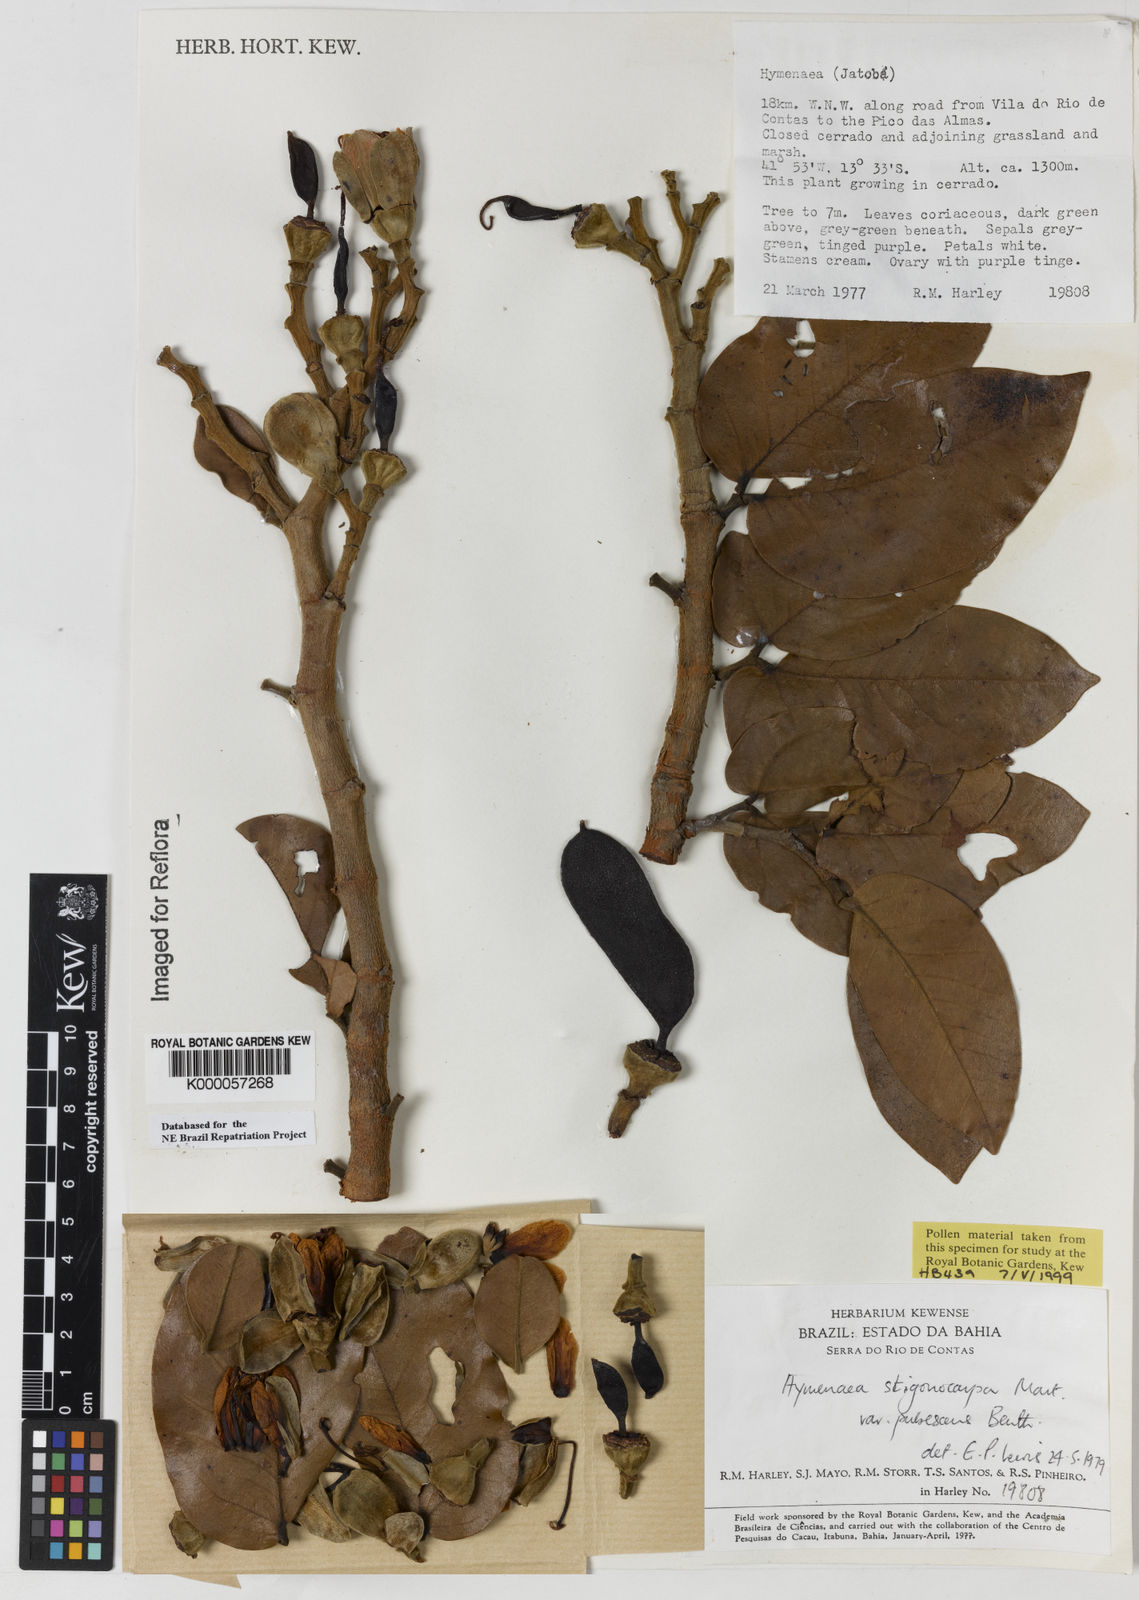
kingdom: Plantae
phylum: Tracheophyta
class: Magnoliopsida
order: Fabales
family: Fabaceae
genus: Hymenaea
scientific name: Hymenaea stigonocarpa
